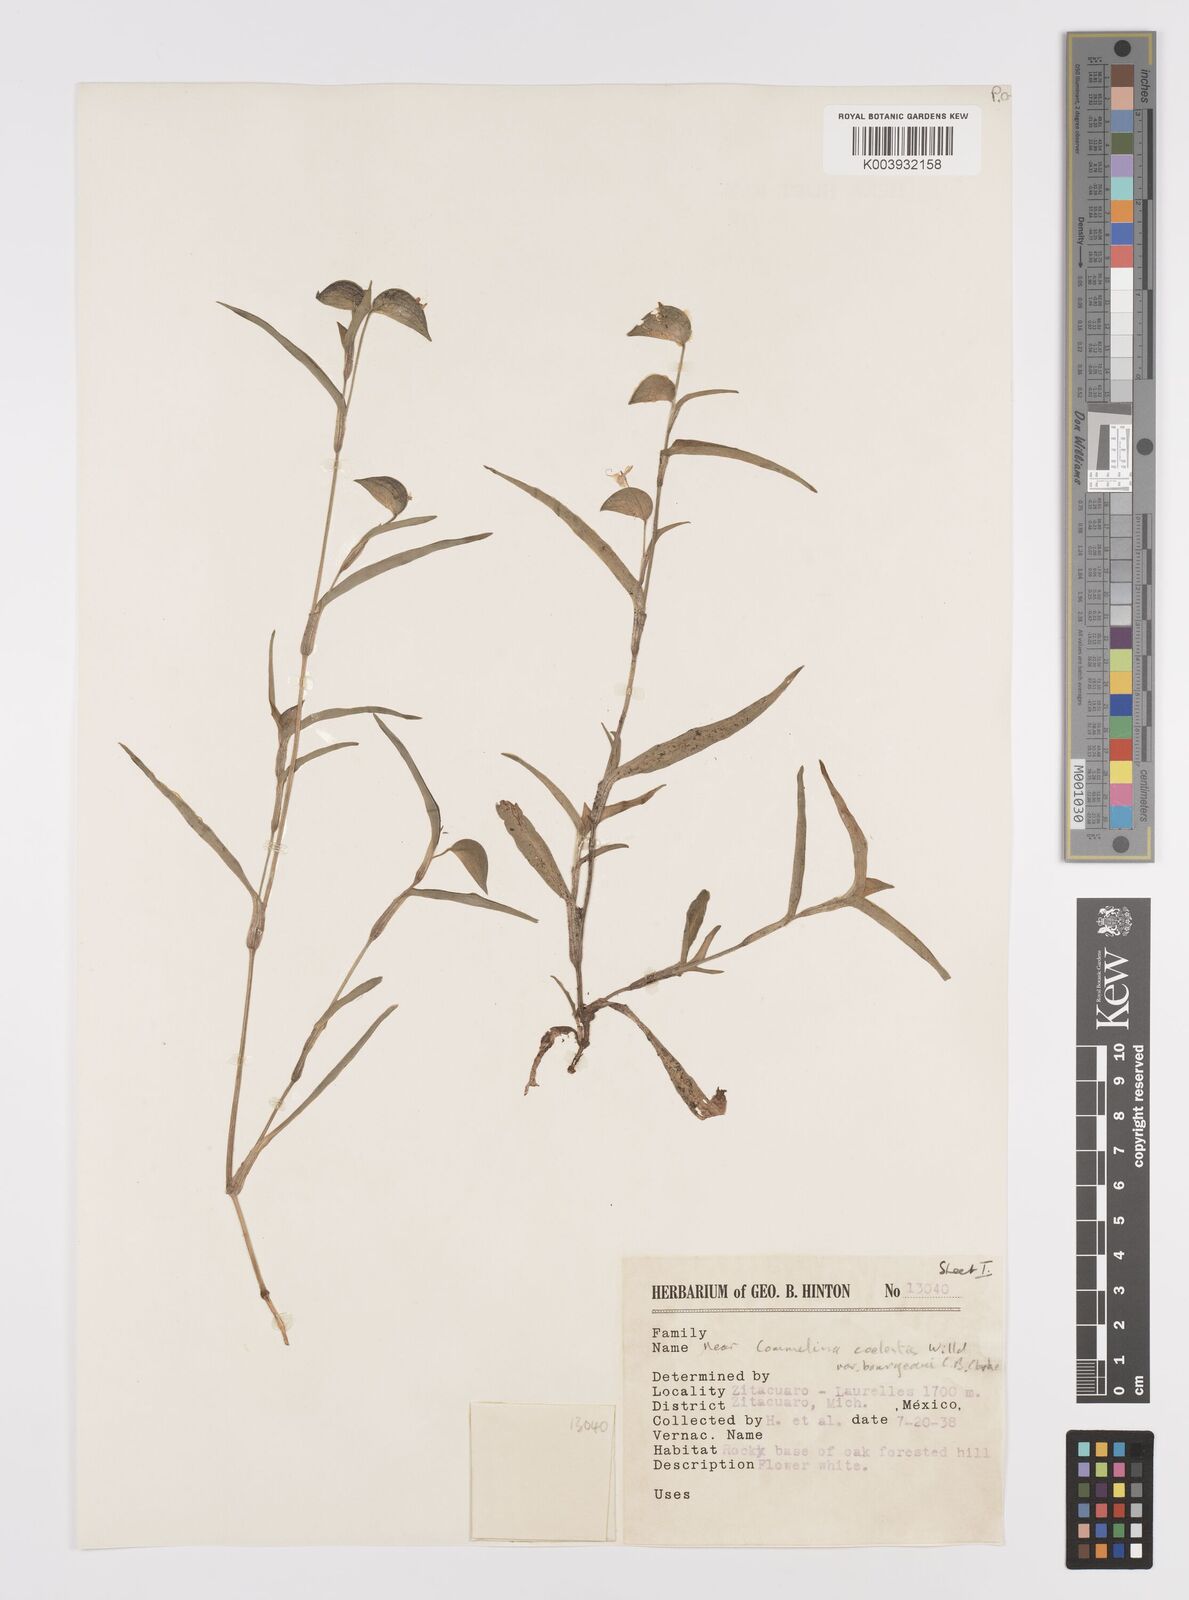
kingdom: Plantae
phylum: Tracheophyta
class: Liliopsida
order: Commelinales
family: Commelinaceae
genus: Commelina
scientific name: Commelina standleyi
